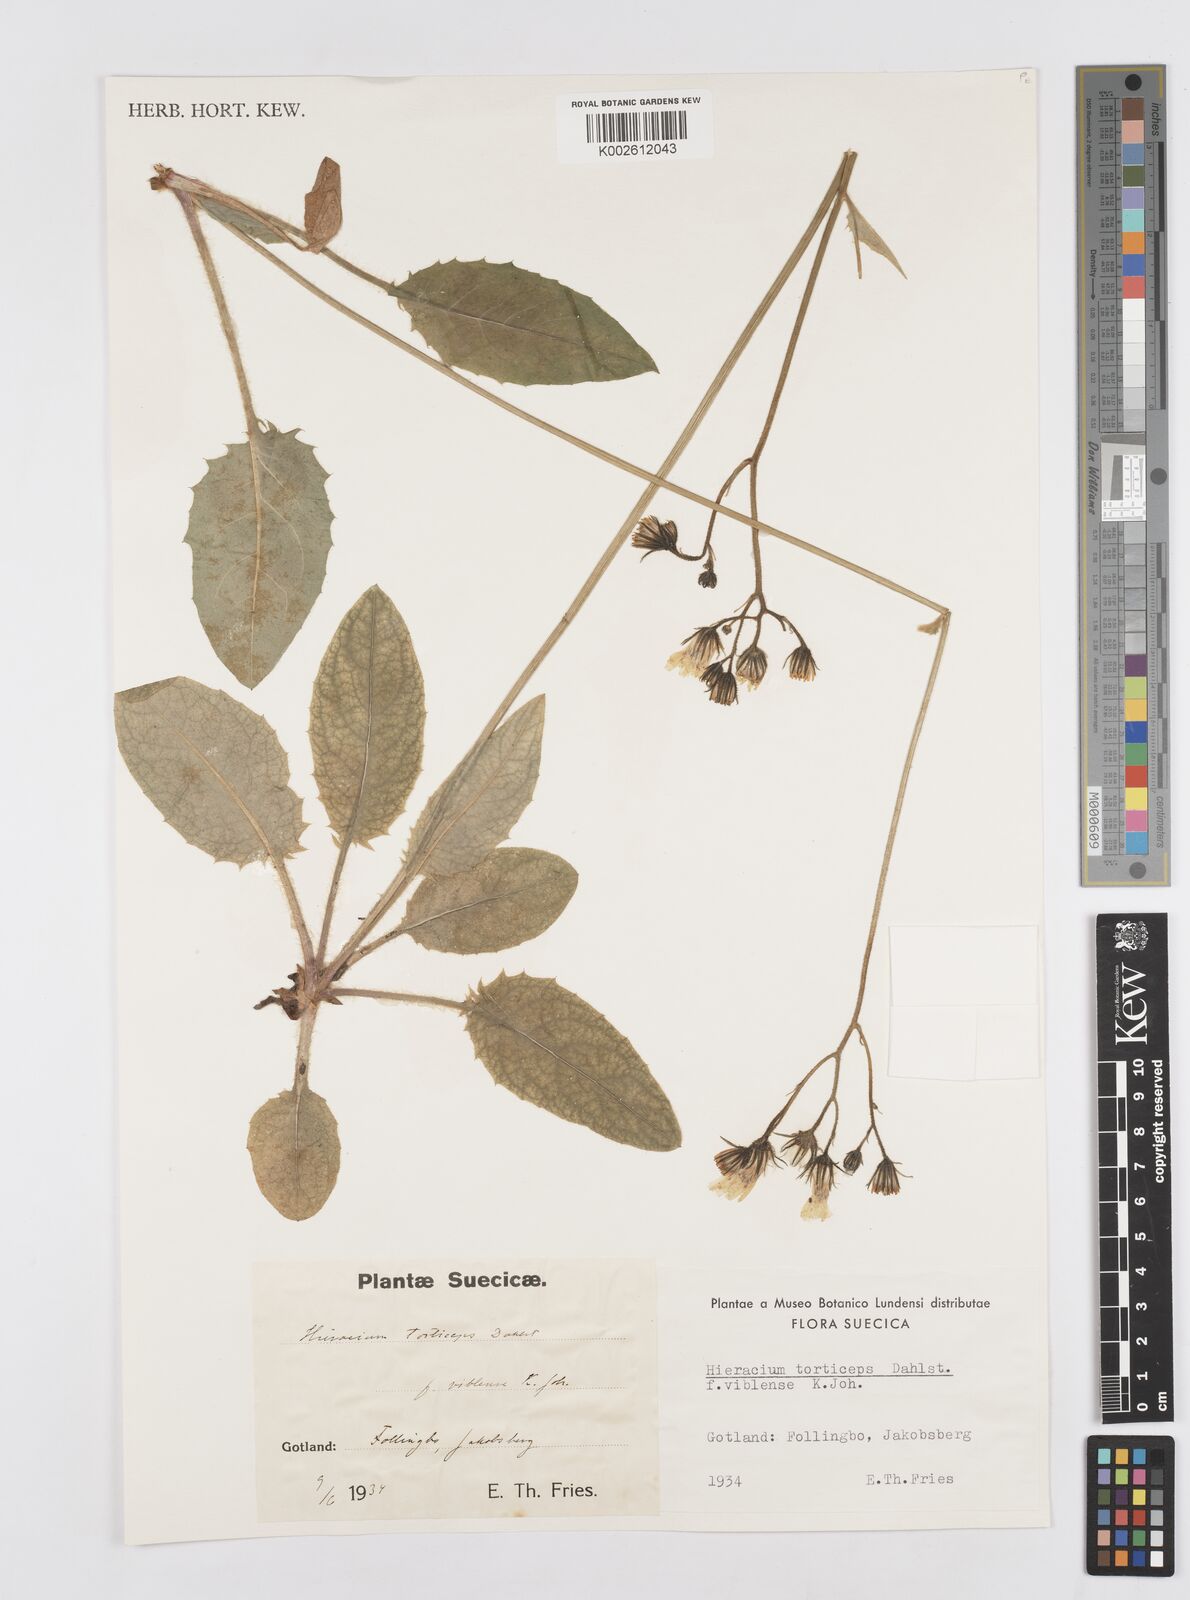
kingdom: Plantae
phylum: Tracheophyta
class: Magnoliopsida
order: Asterales
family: Asteraceae
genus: Hieracium
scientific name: Hieracium murorum
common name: Wall hawkweed
